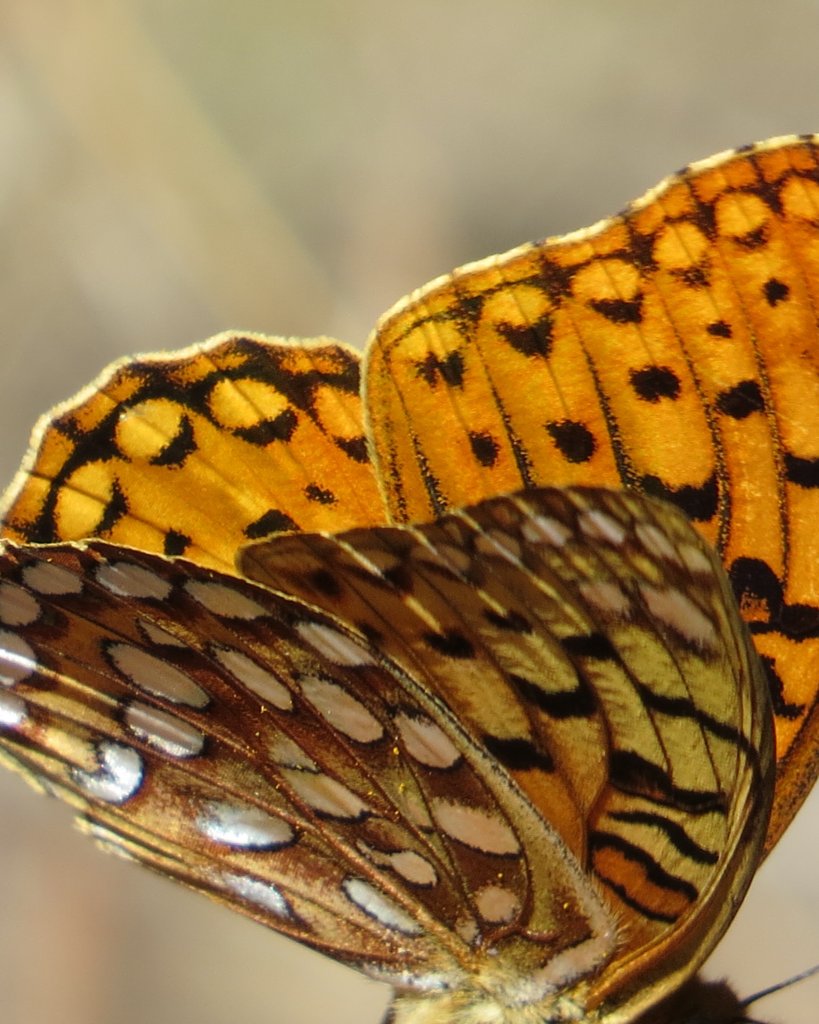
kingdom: Animalia
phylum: Arthropoda
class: Insecta
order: Lepidoptera
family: Nymphalidae
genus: Speyeria
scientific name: Speyeria coronis
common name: Coronis Fritillary
